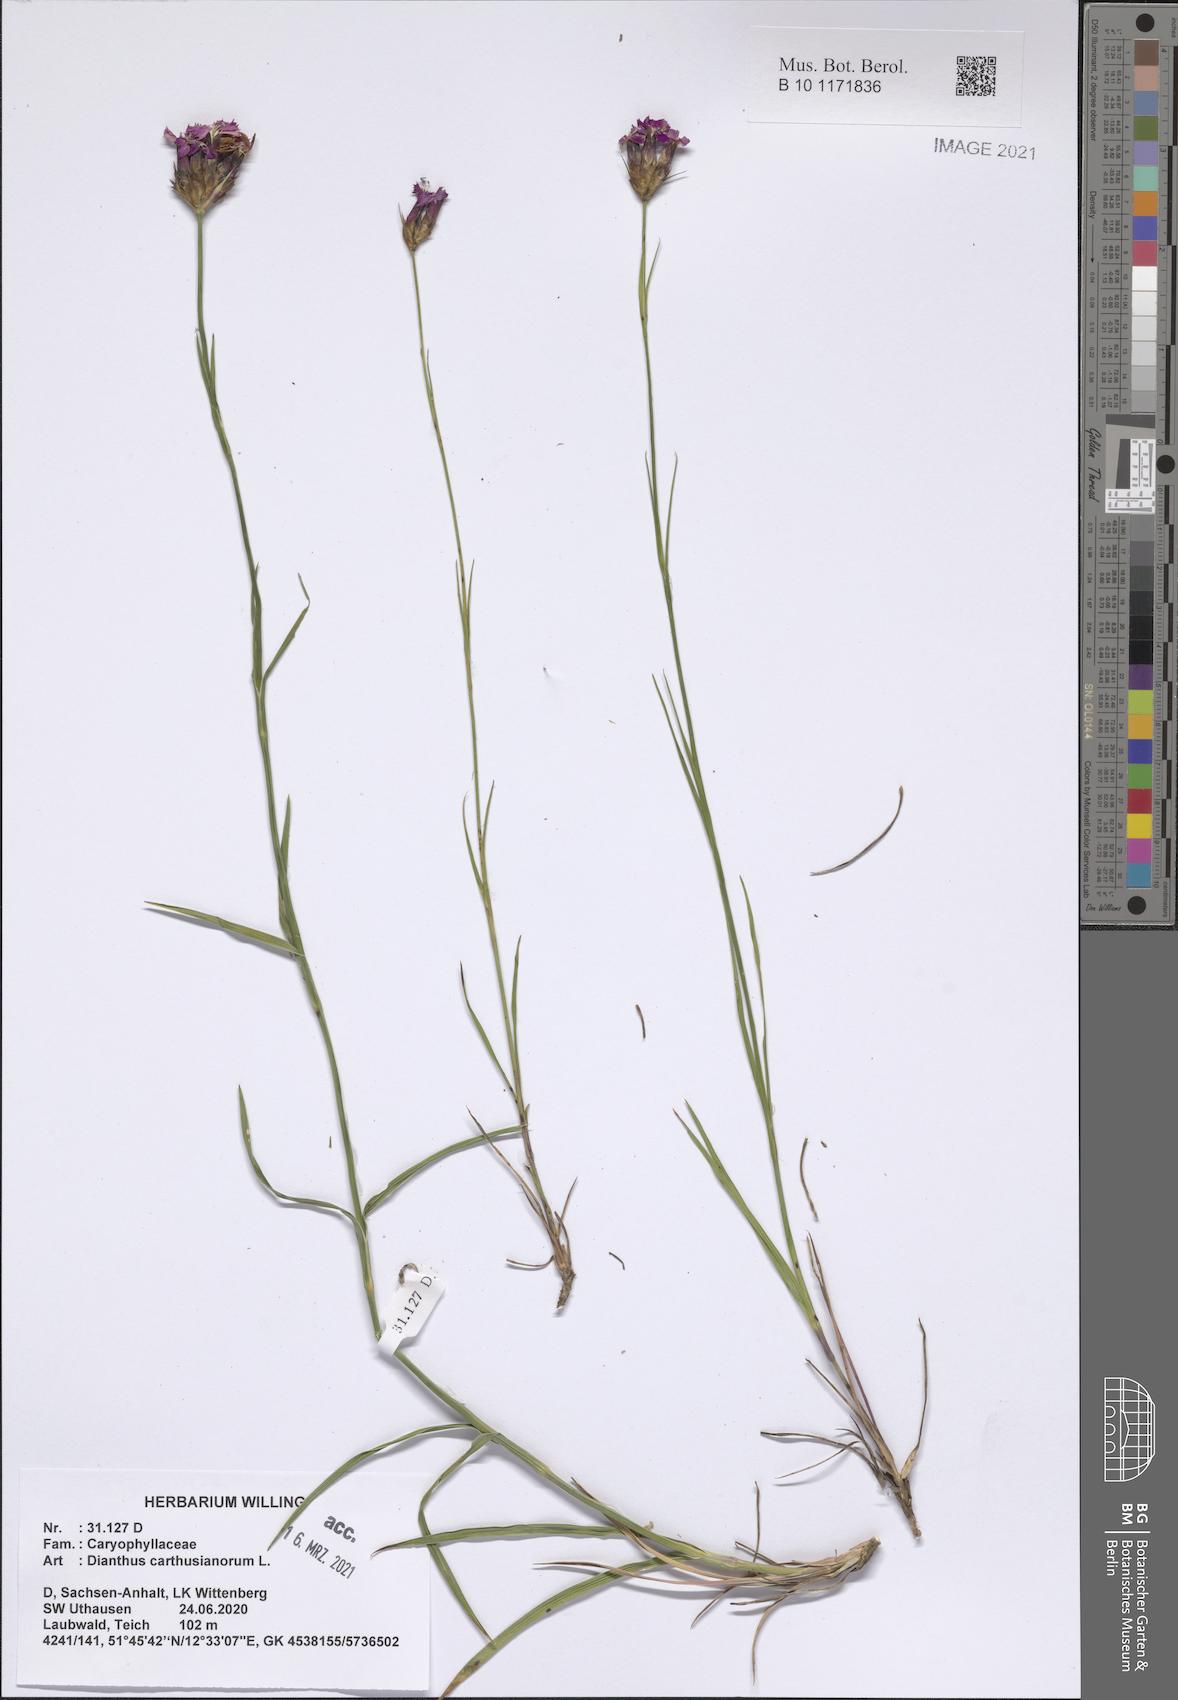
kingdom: Plantae
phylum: Tracheophyta
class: Magnoliopsida
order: Caryophyllales
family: Caryophyllaceae
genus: Dianthus
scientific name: Dianthus carthusianorum
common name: Carthusian pink
